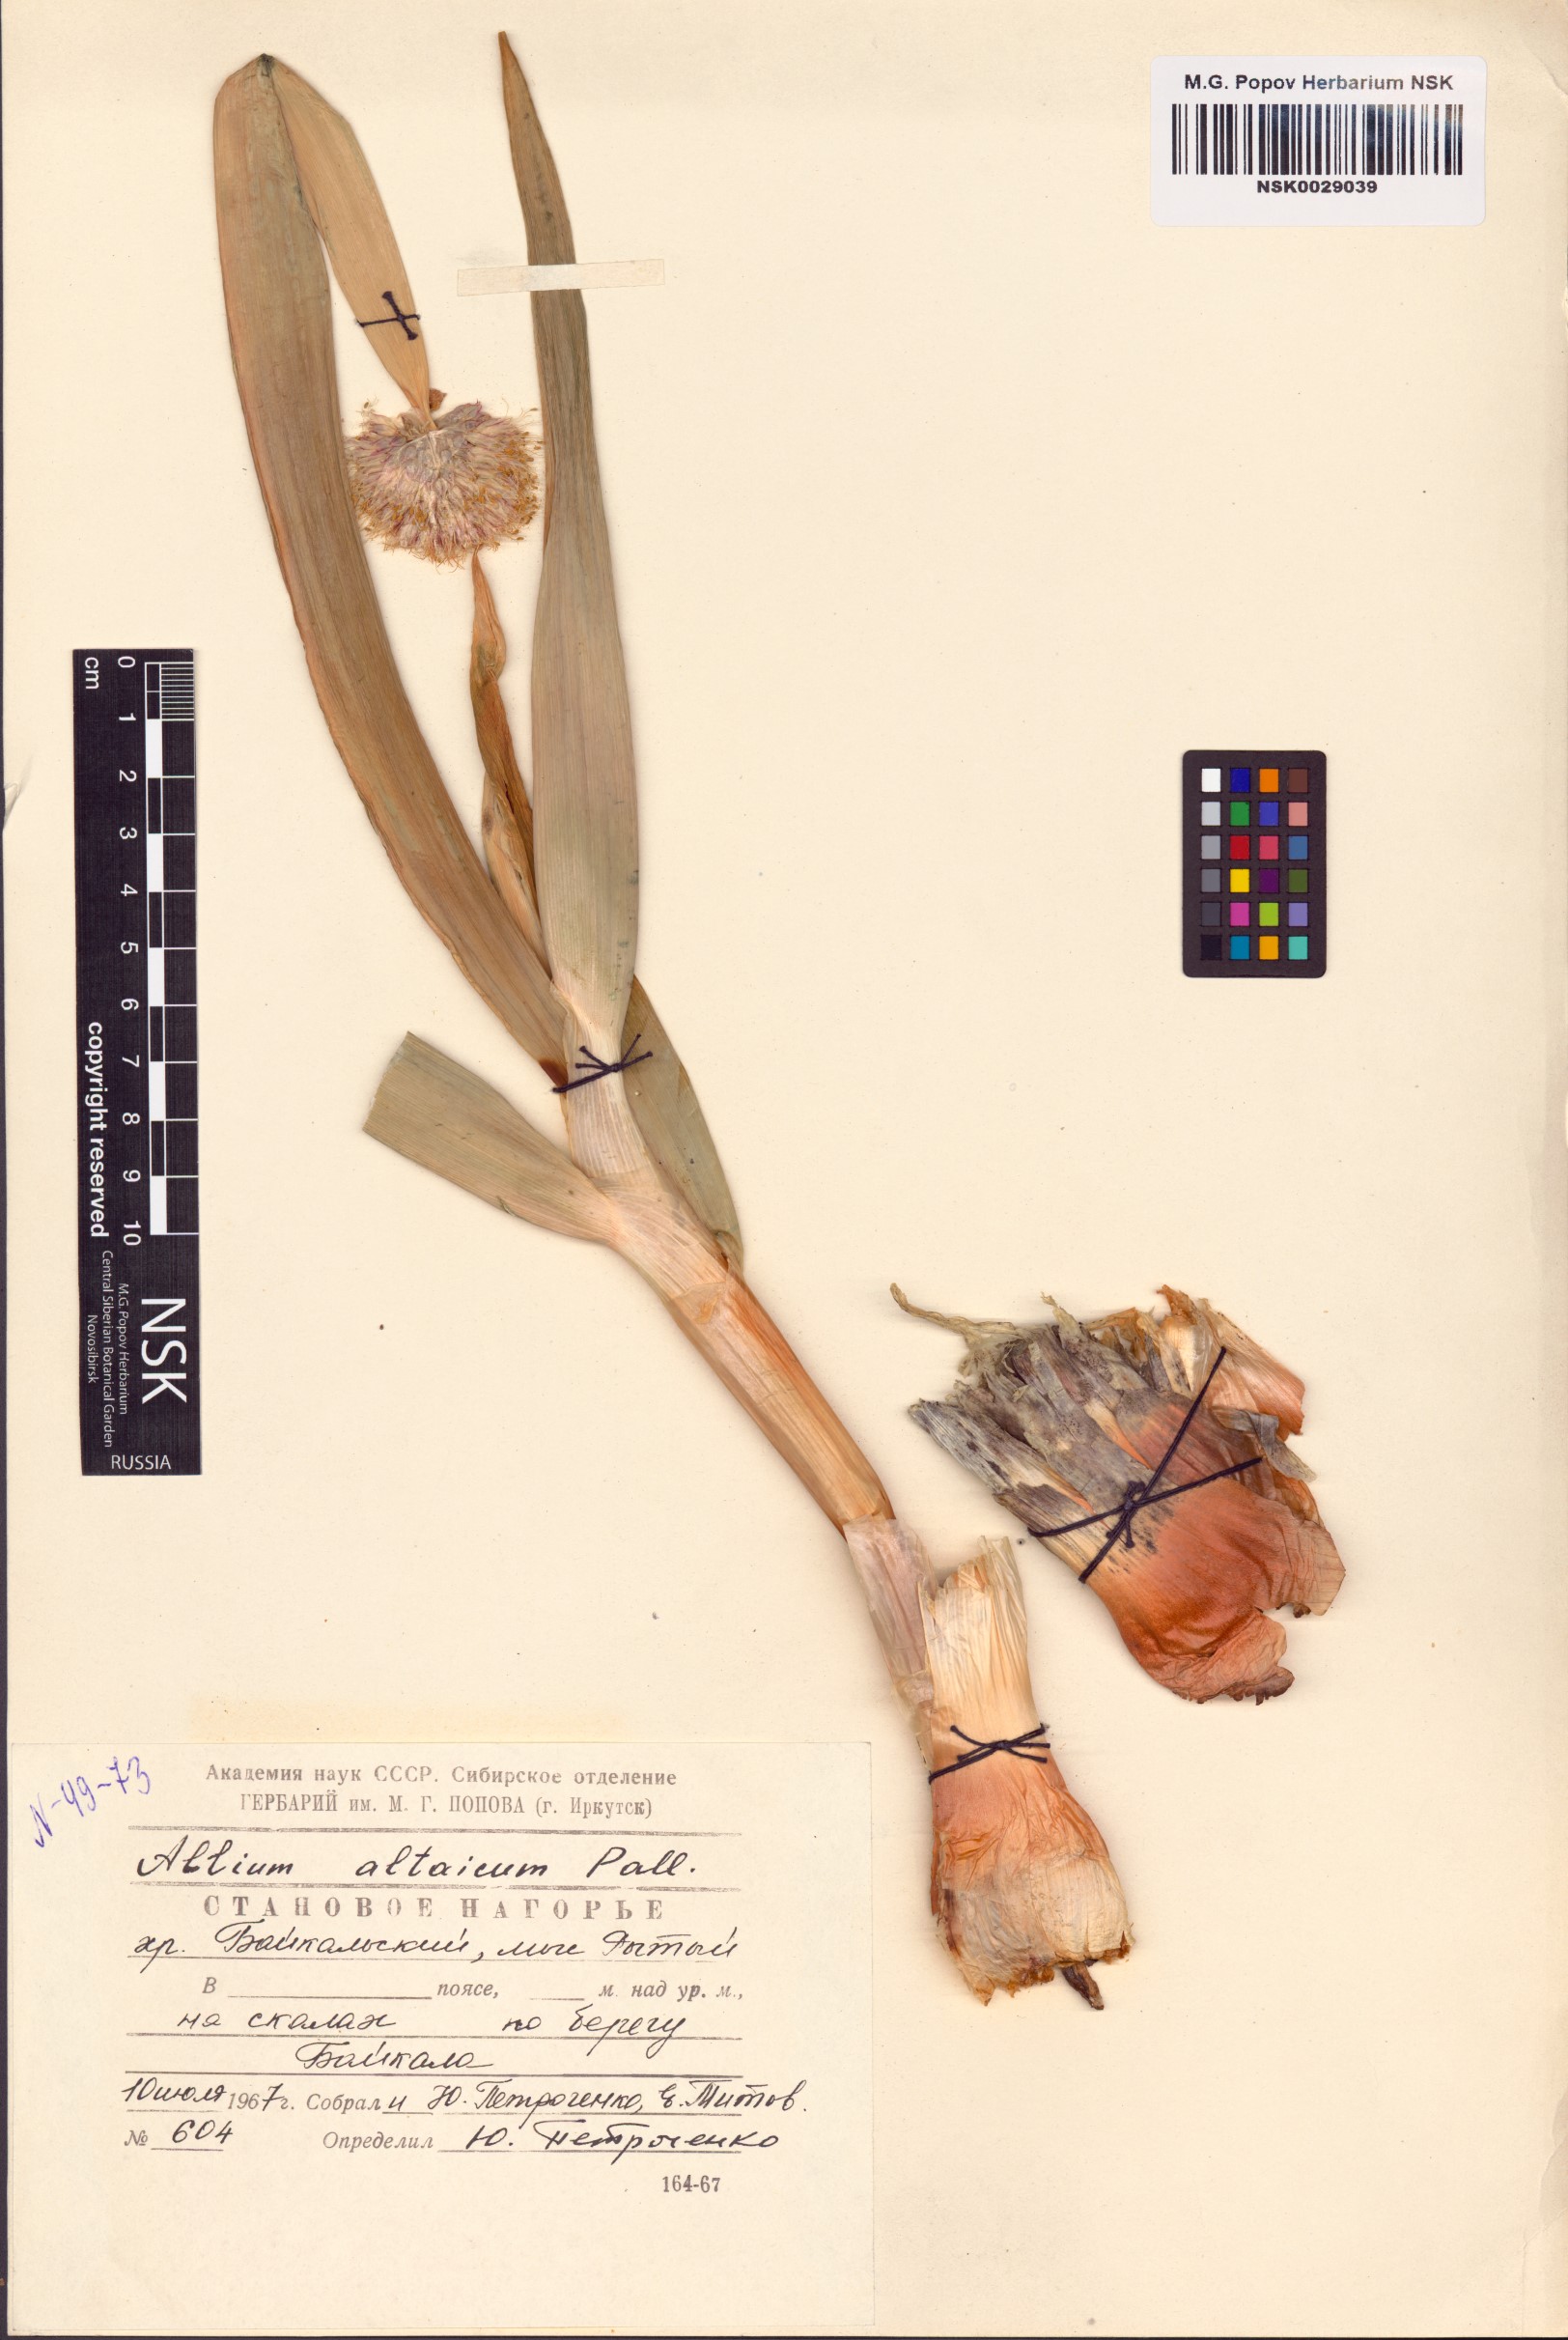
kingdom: Plantae
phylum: Tracheophyta
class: Liliopsida
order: Asparagales
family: Amaryllidaceae
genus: Allium
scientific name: Allium altaicum
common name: Altai onion
